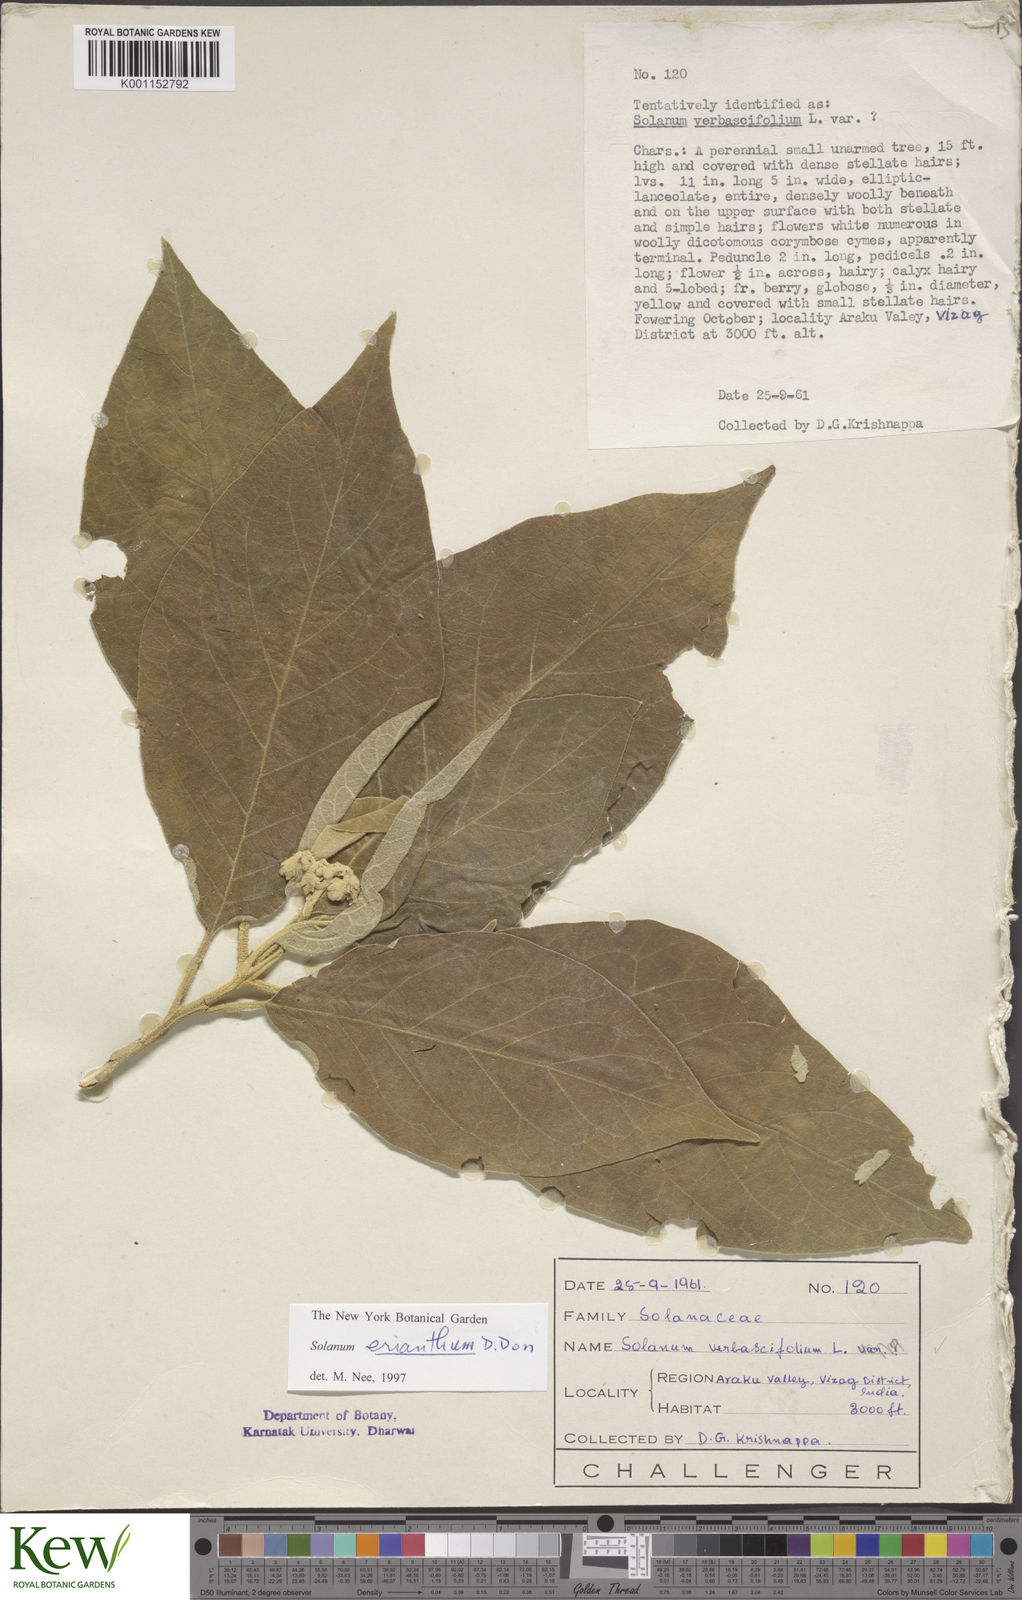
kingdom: Plantae
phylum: Tracheophyta
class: Magnoliopsida
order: Solanales
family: Solanaceae
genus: Solanum
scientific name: Solanum erianthum
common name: Tobacco-tree
